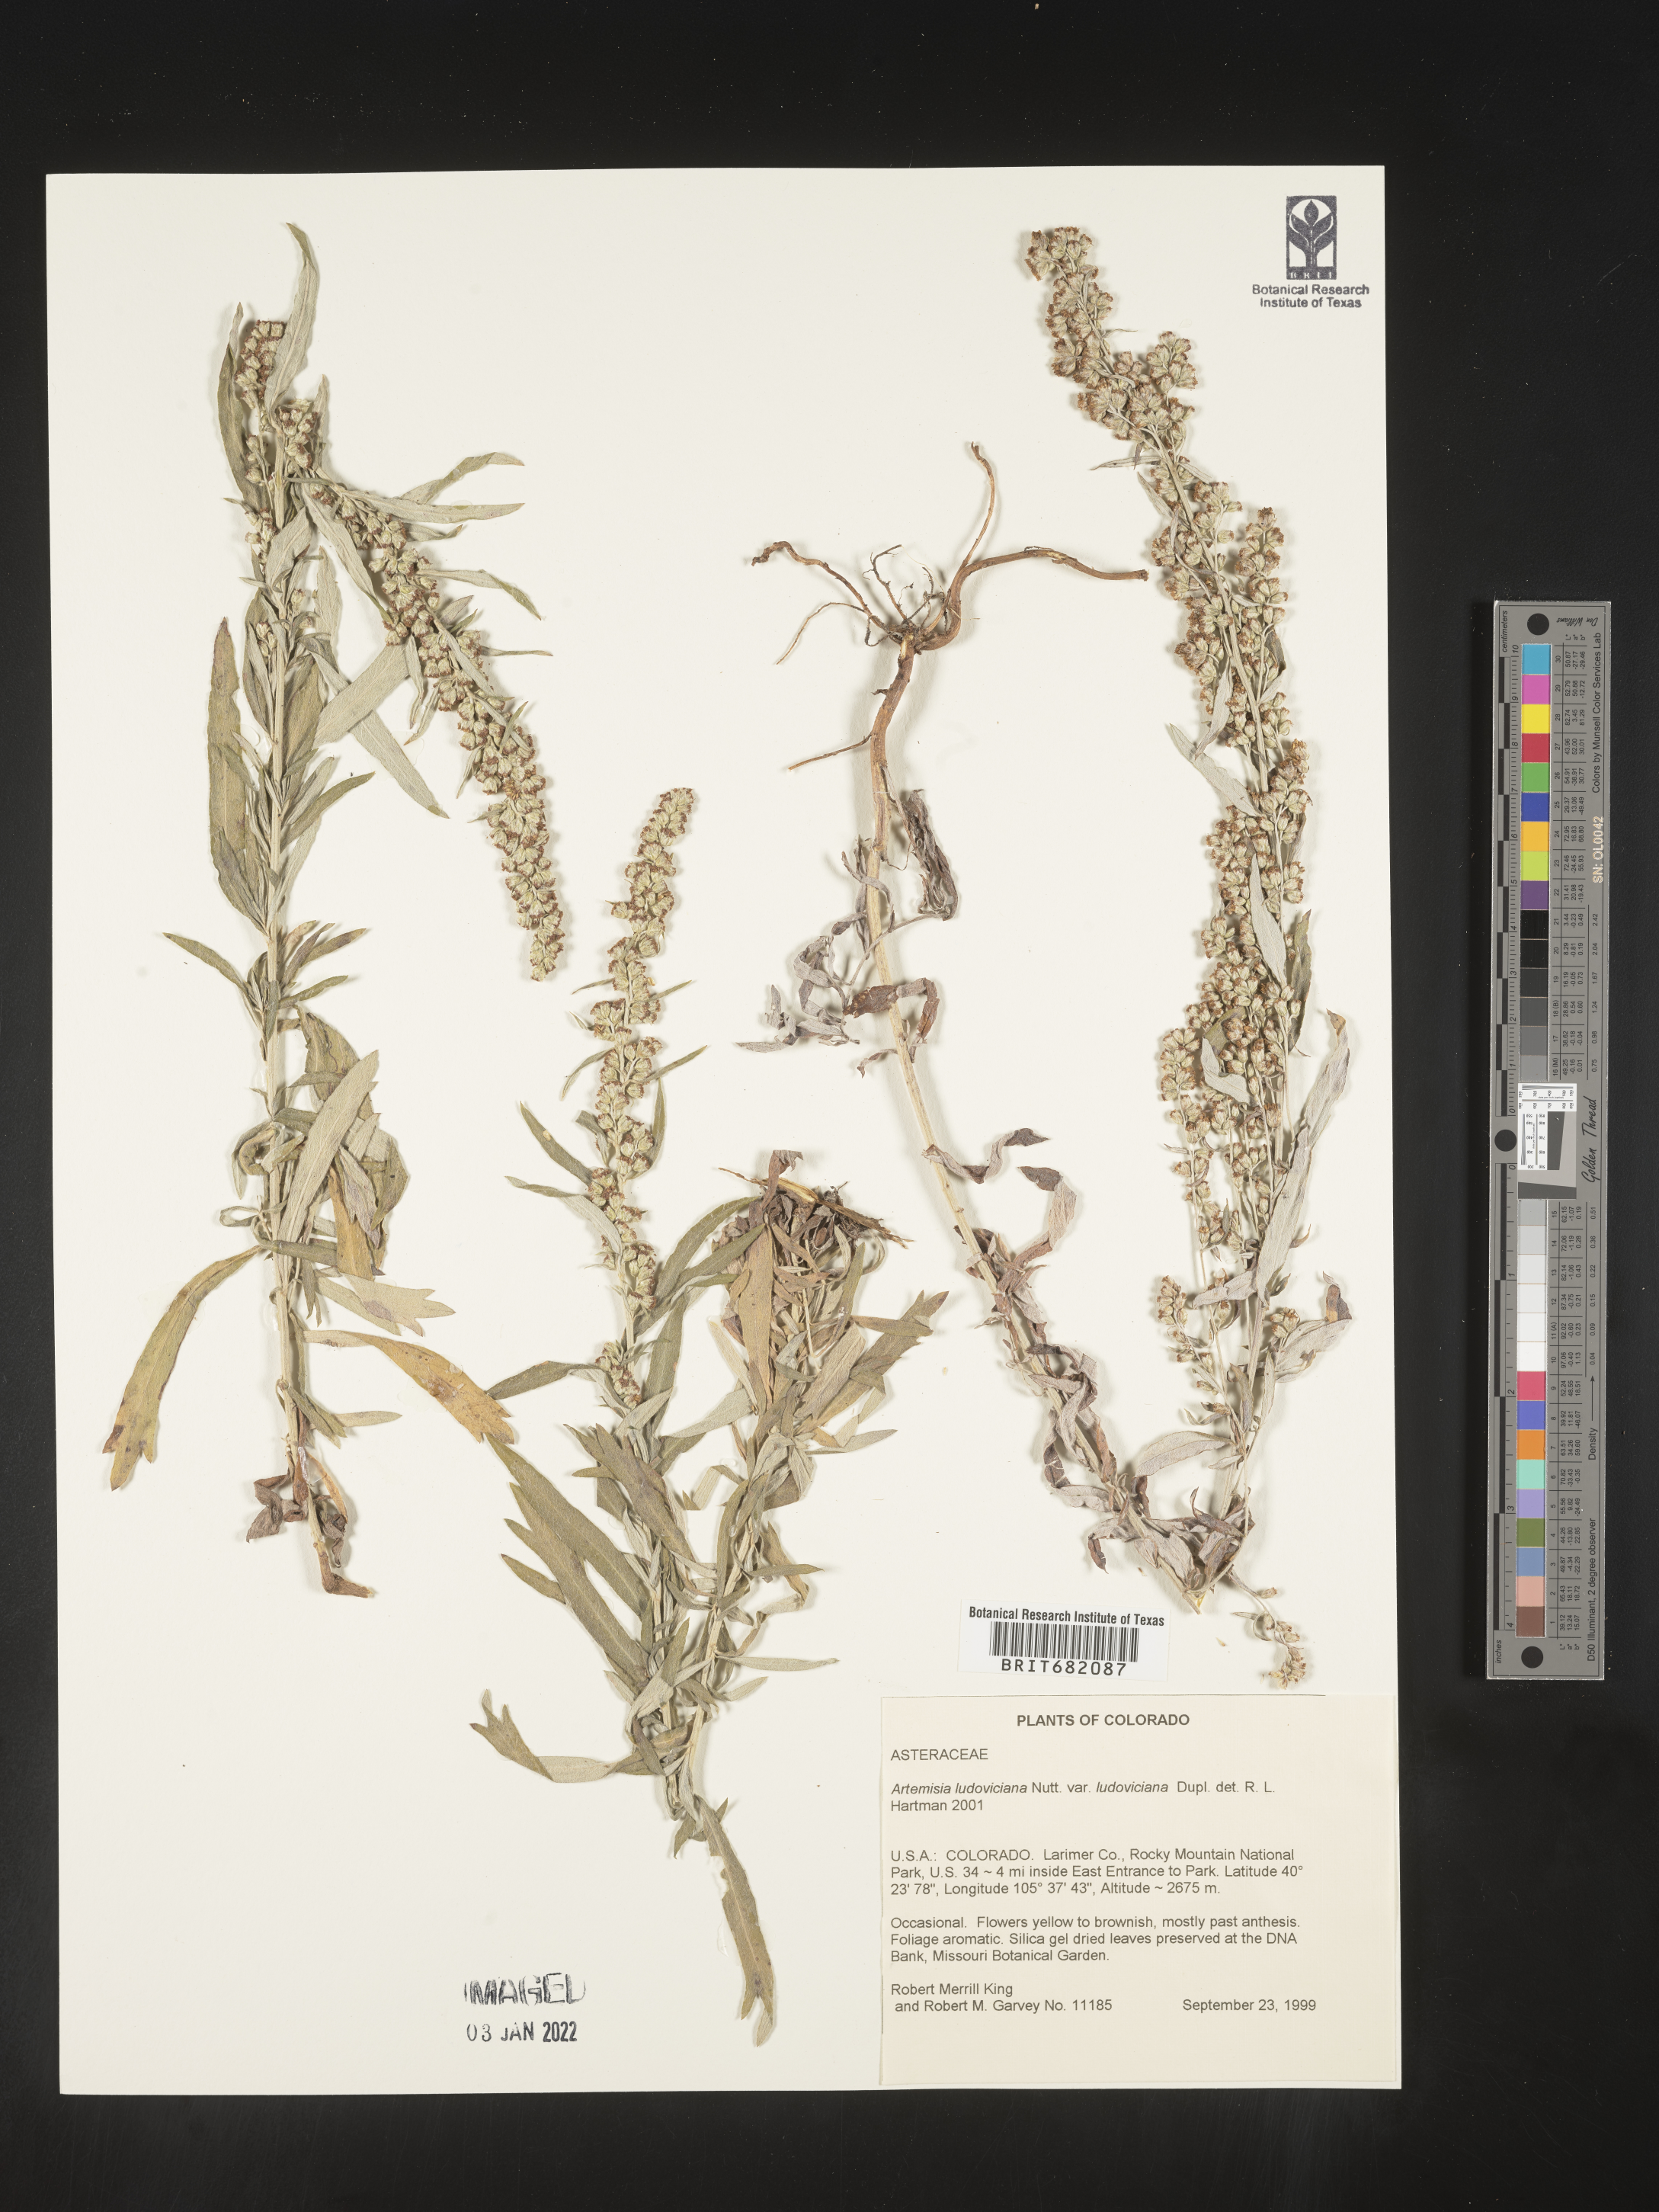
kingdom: Plantae
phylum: Tracheophyta
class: Magnoliopsida
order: Asterales
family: Asteraceae
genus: Artemisia
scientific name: Artemisia ludoviciana
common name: Western mugwort
